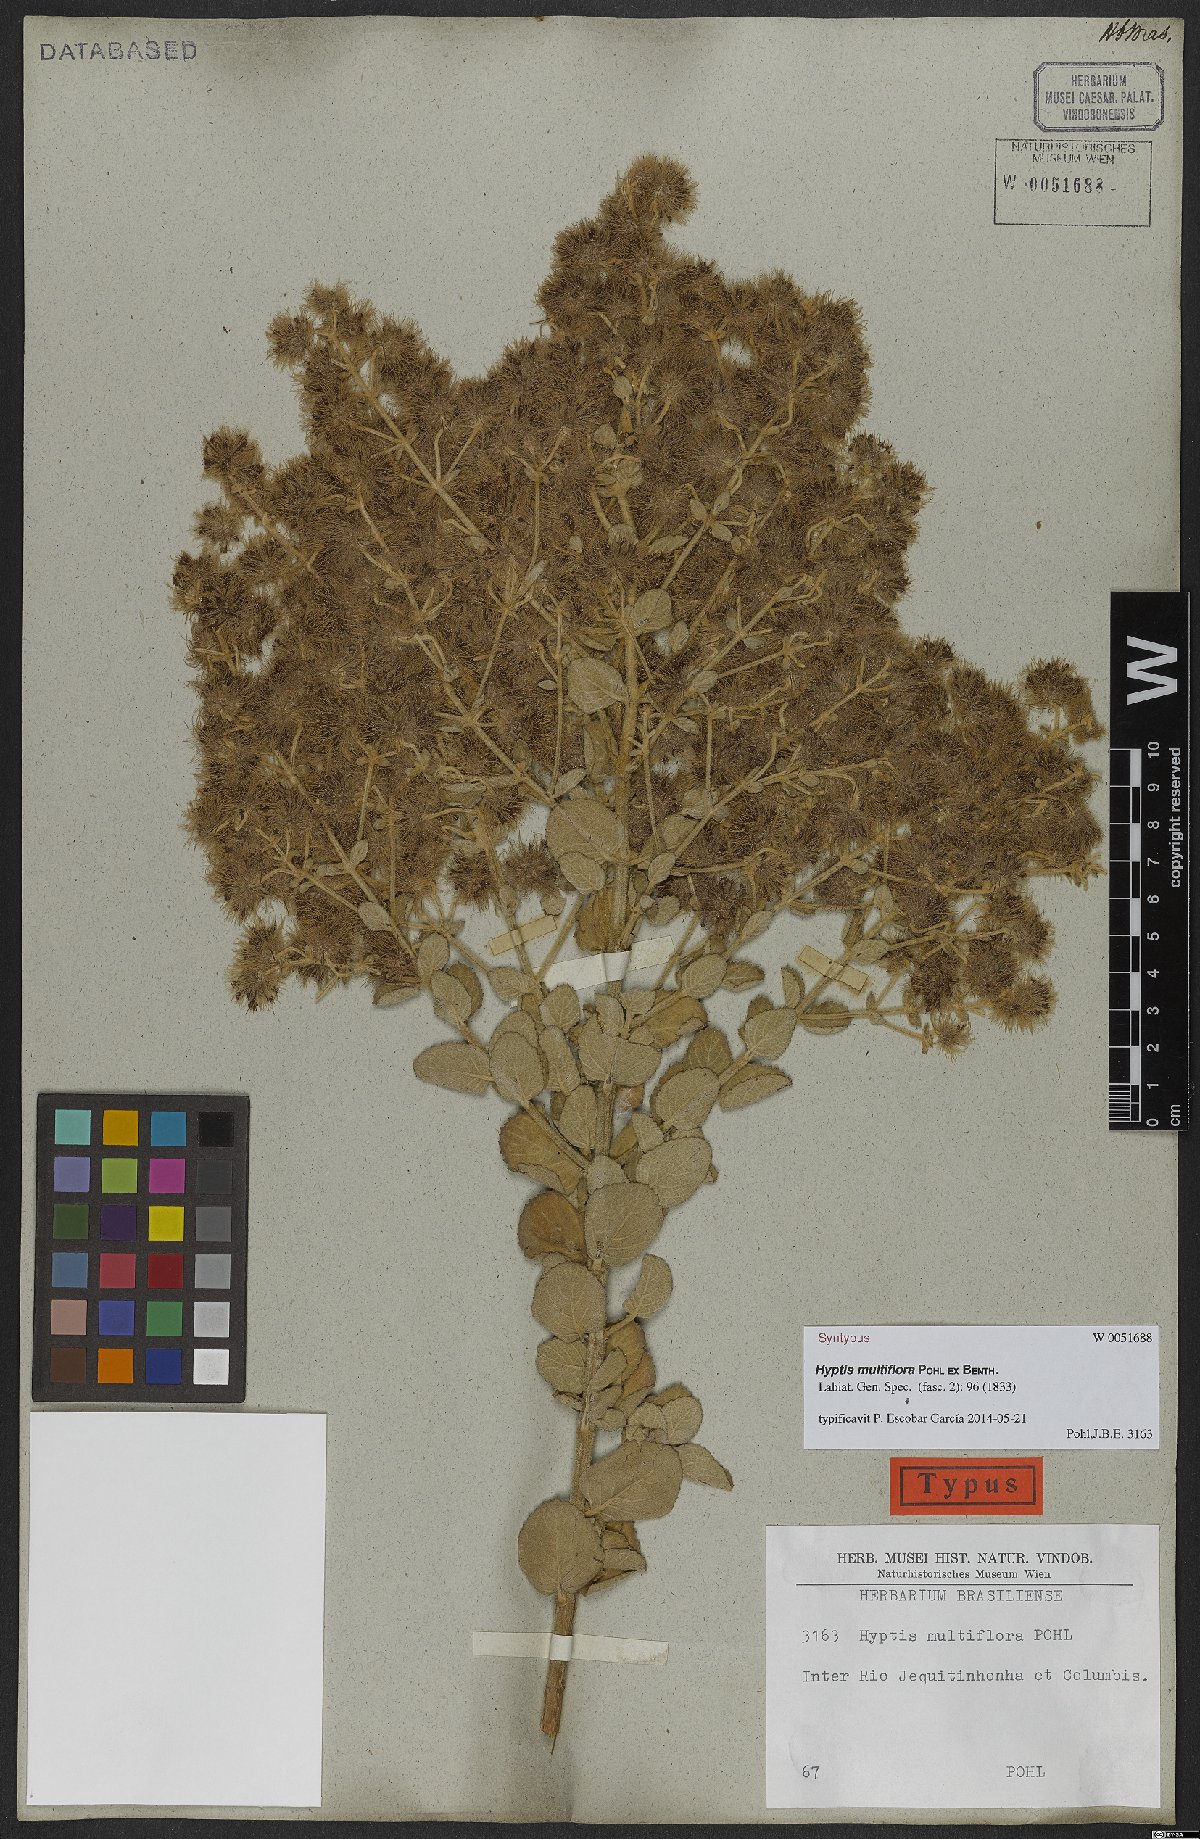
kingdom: Plantae
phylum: Tracheophyta
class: Magnoliopsida
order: Lamiales
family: Lamiaceae
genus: Medusantha
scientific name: Medusantha multiflora
